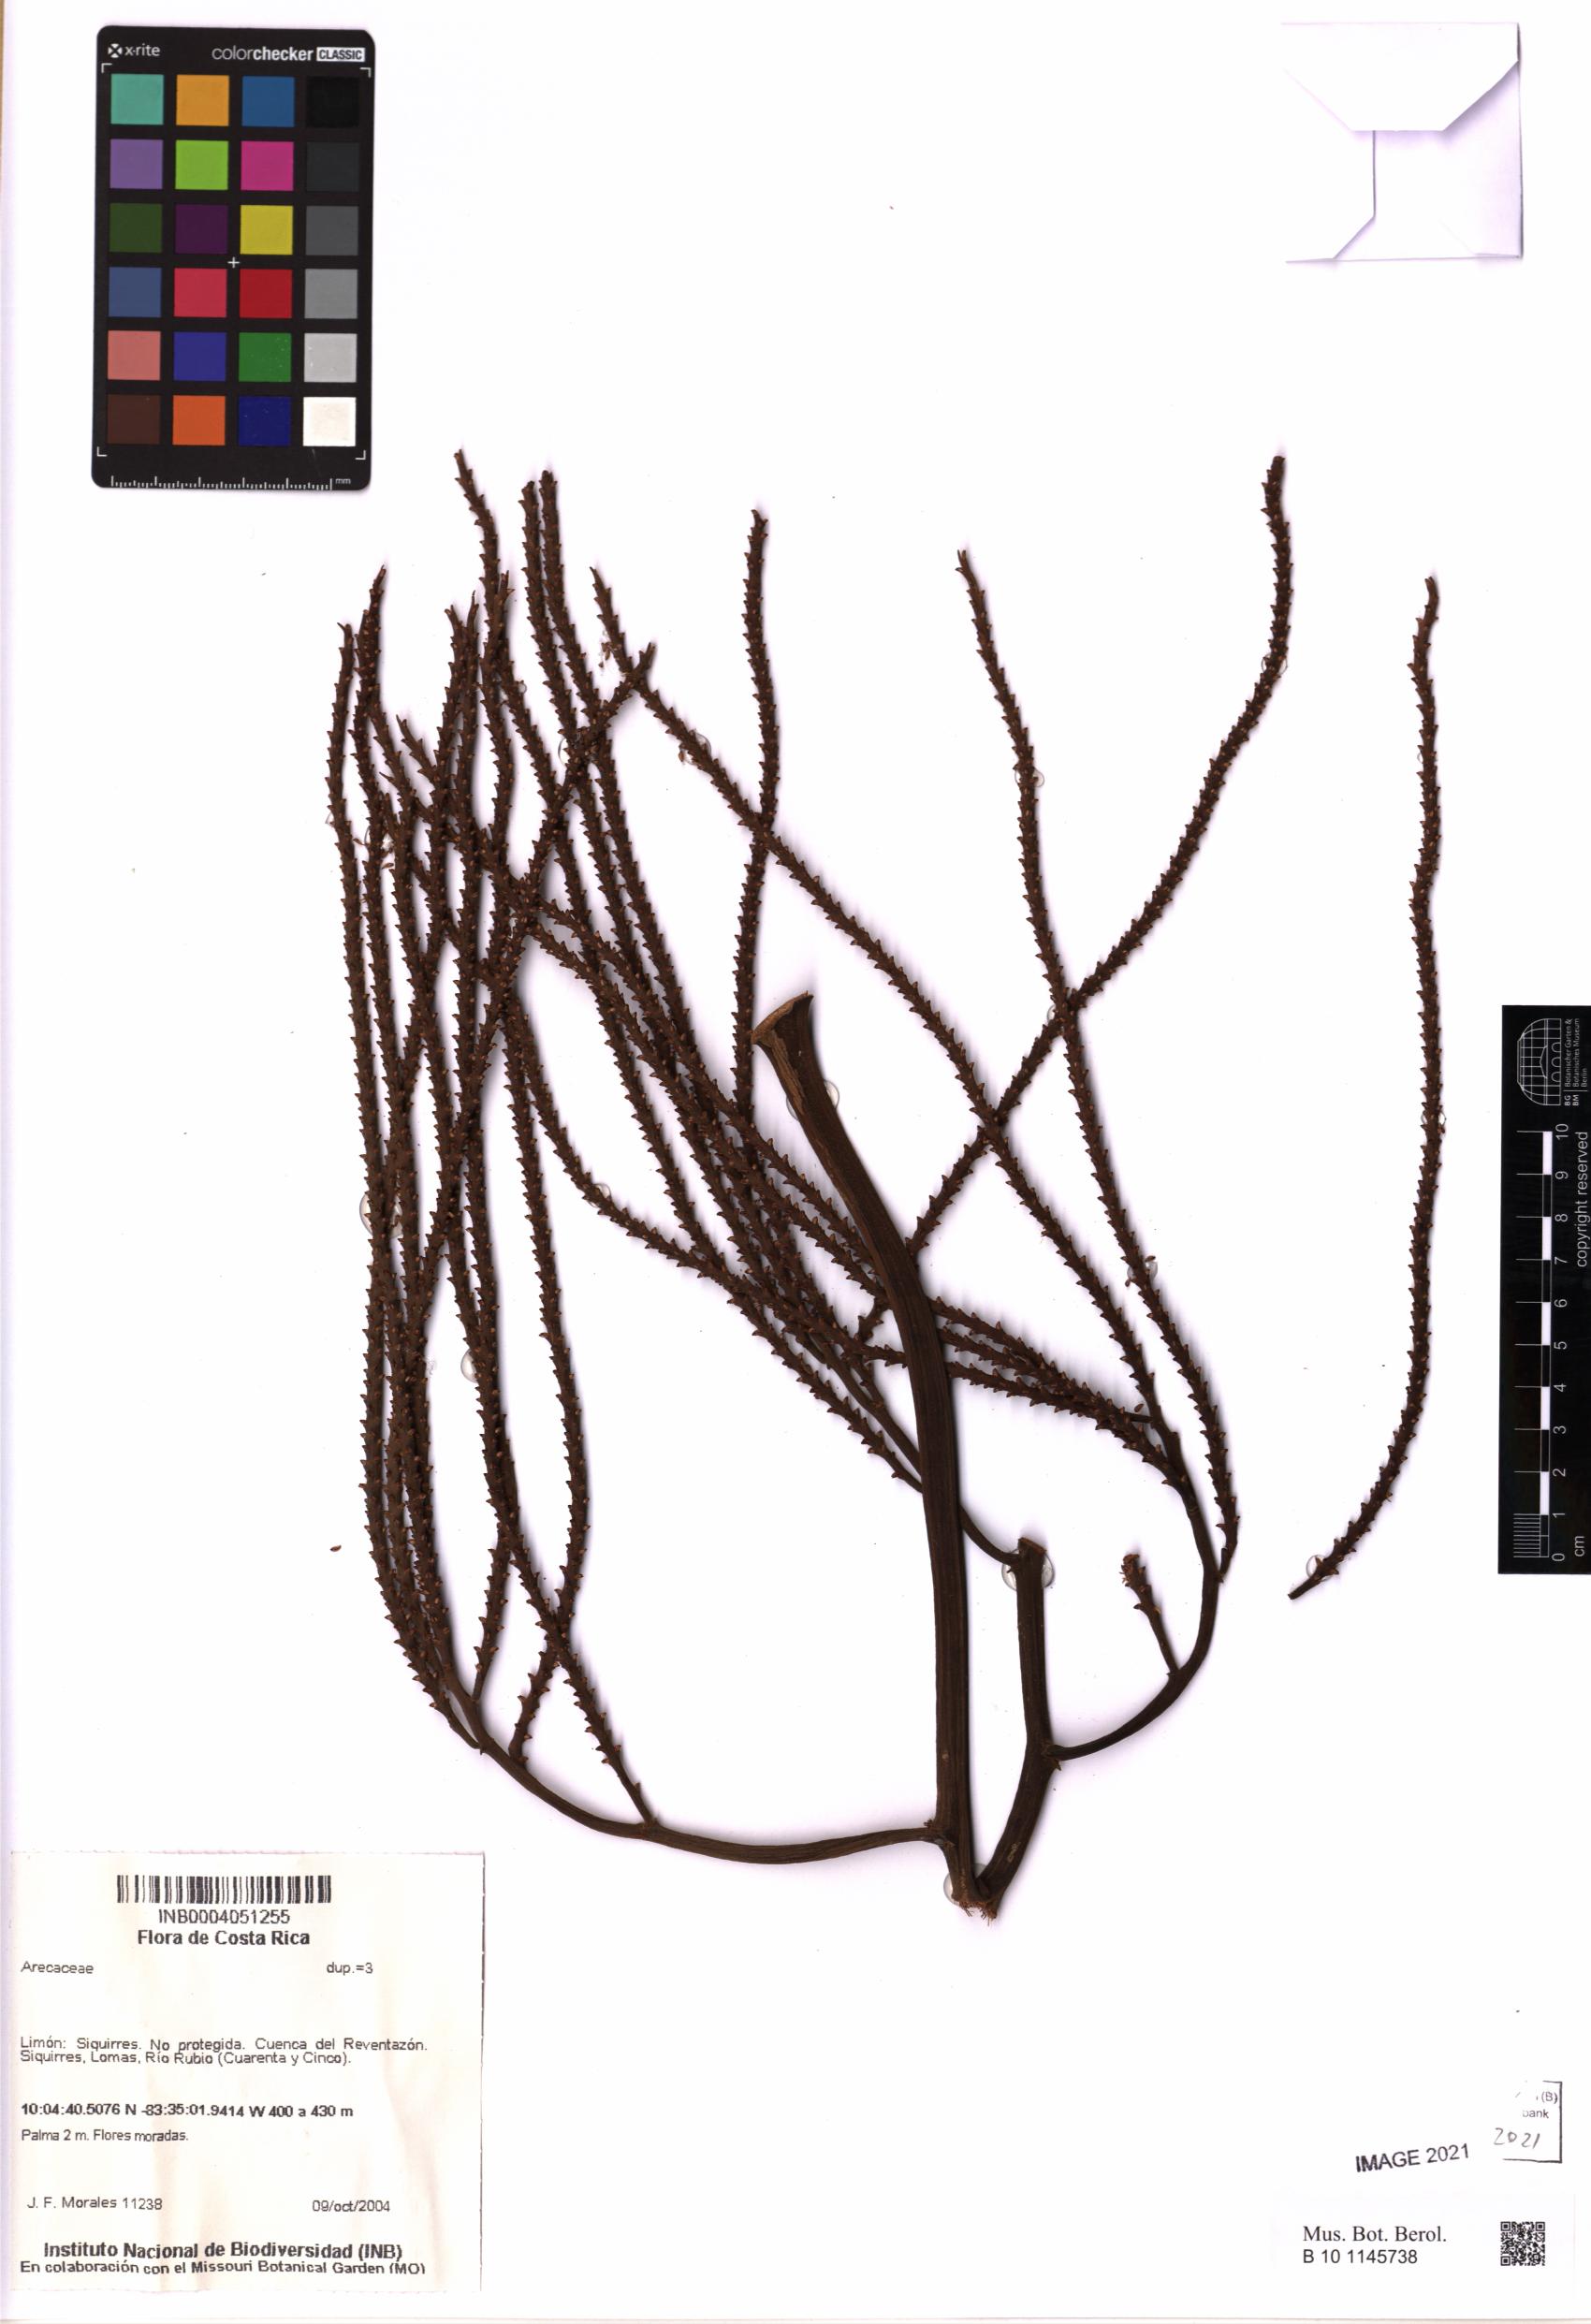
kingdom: Plantae
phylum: Tracheophyta
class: Liliopsida
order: Arecales
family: Arecaceae
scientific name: Arecaceae
